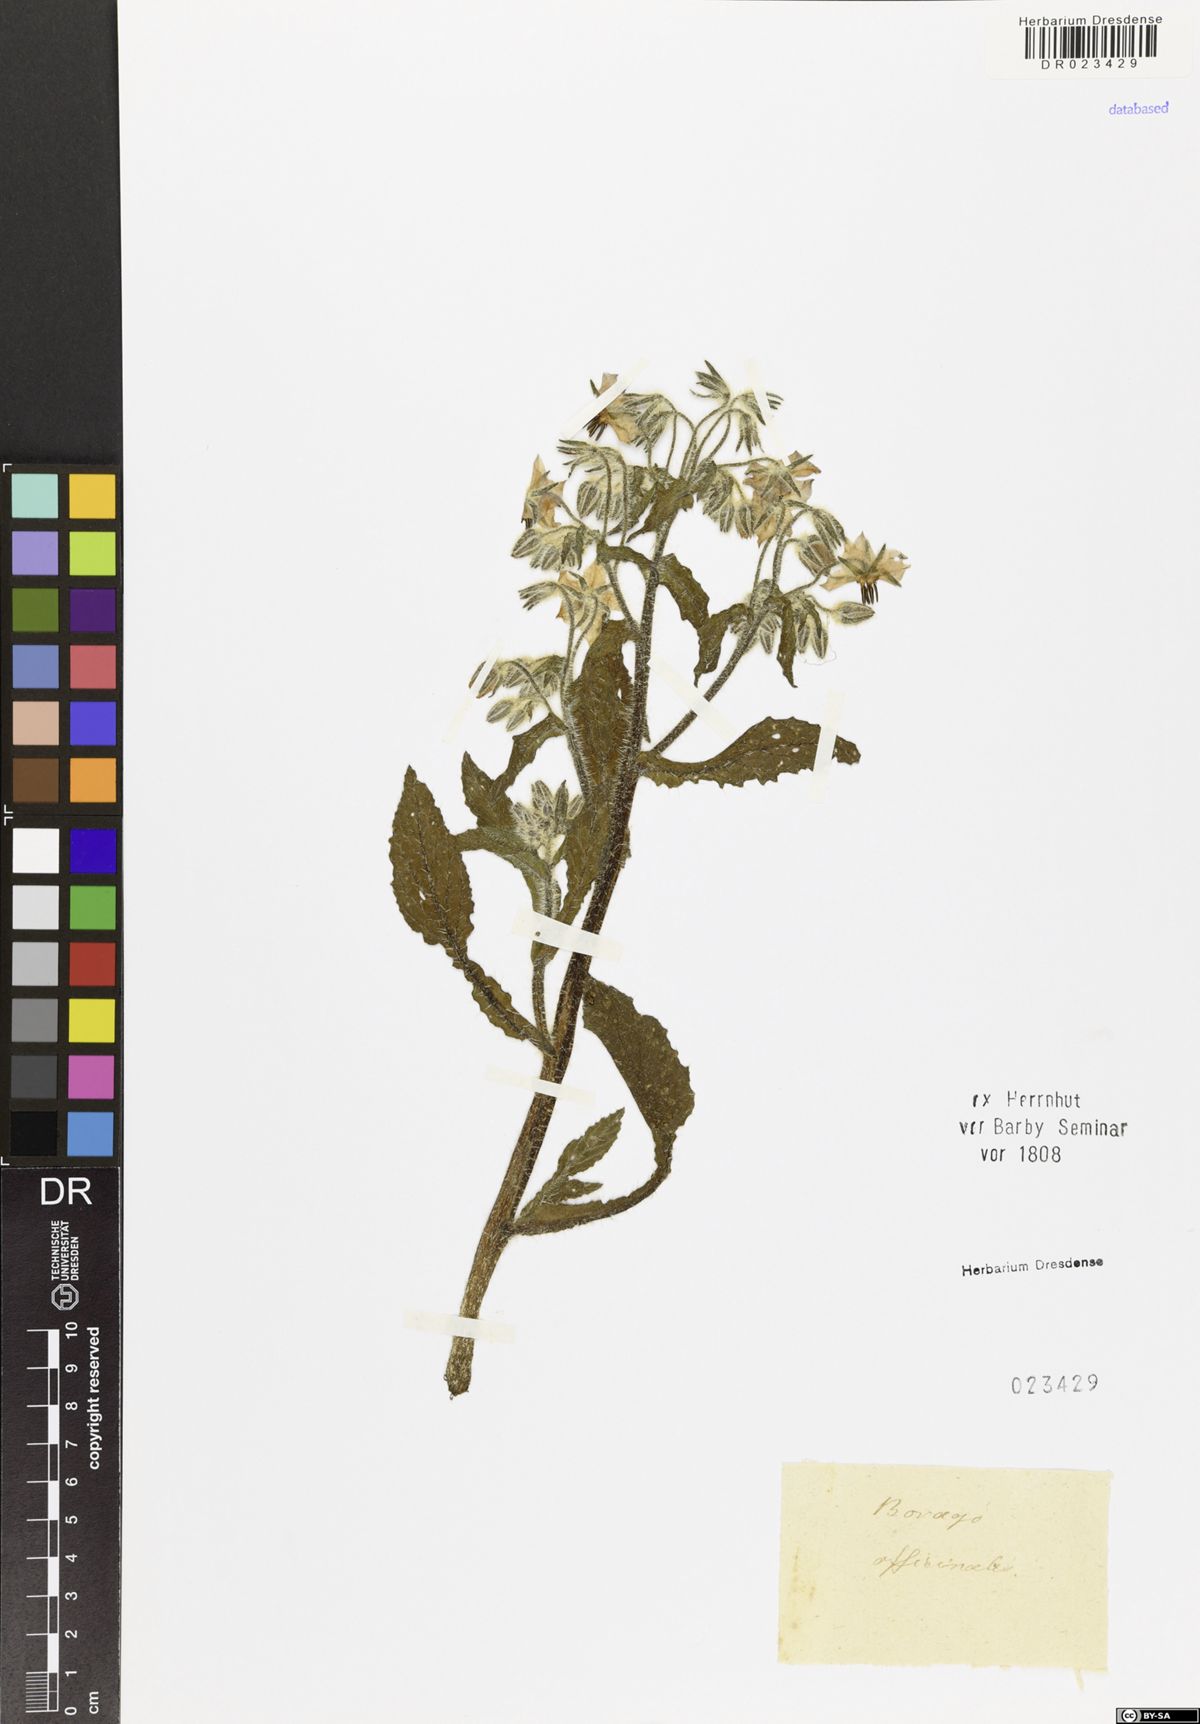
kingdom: Plantae
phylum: Tracheophyta
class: Magnoliopsida
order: Boraginales
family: Boraginaceae
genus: Borago
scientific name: Borago officinalis
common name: Borage
